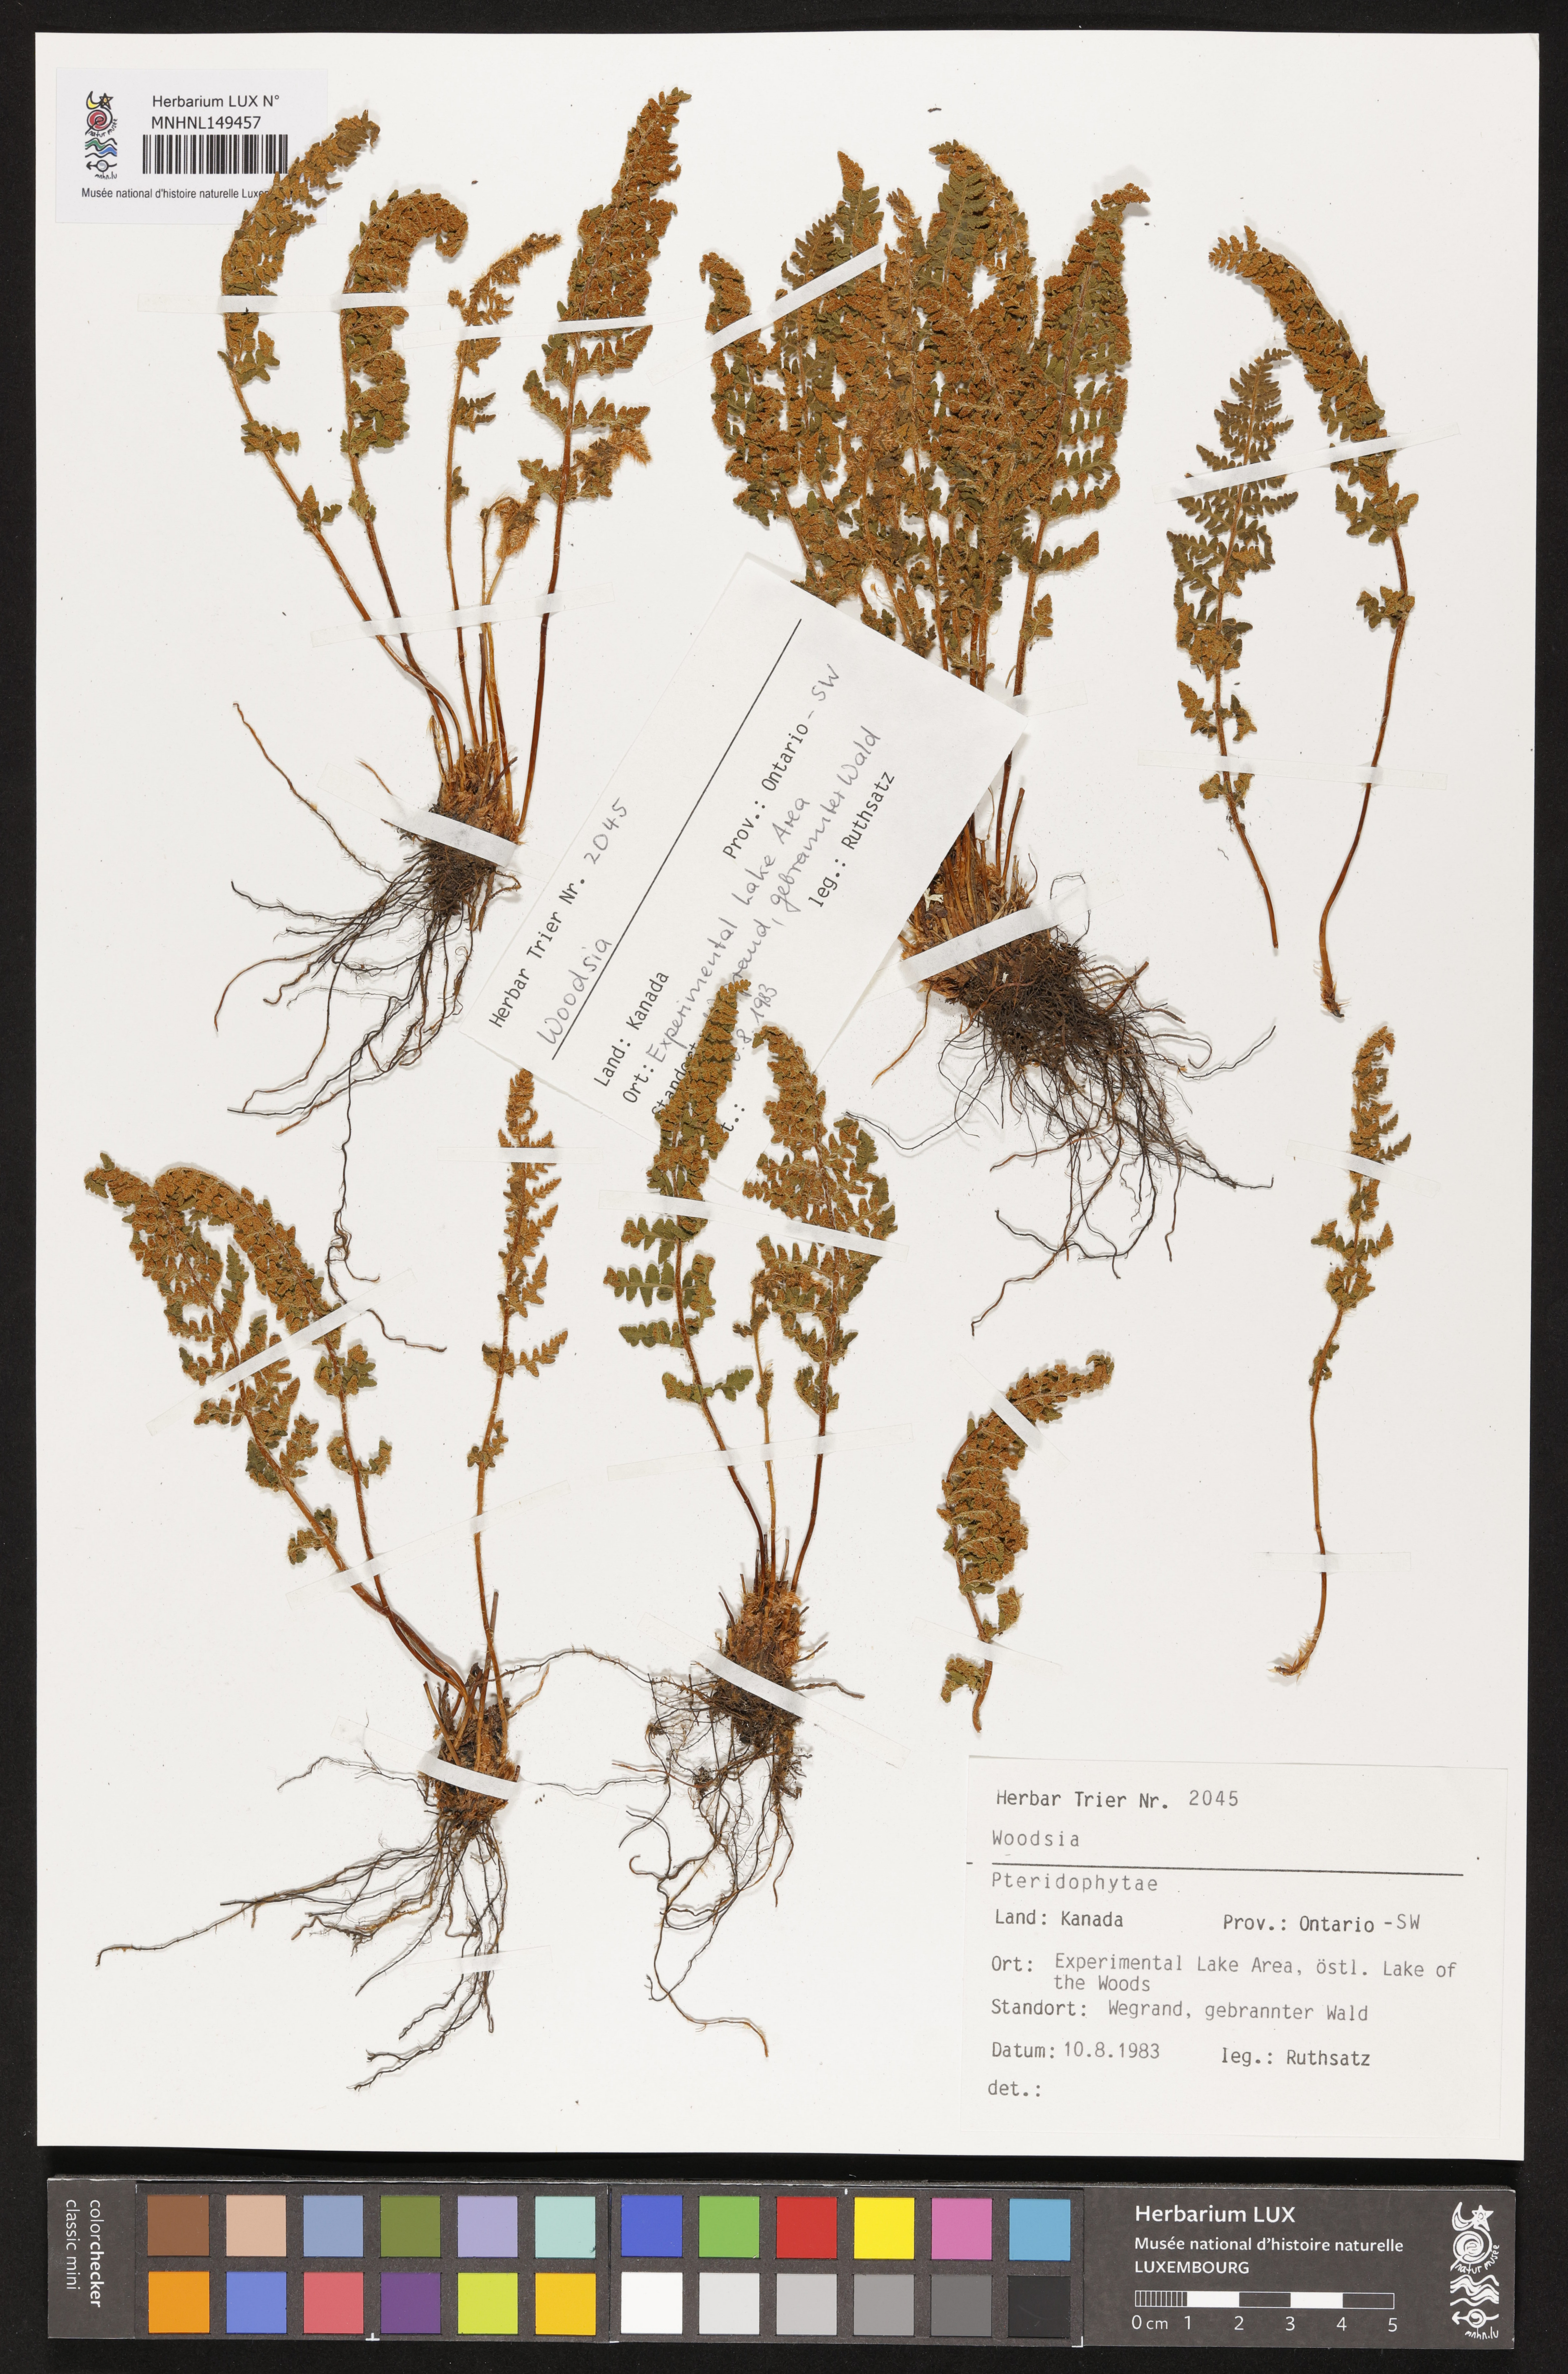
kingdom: Plantae
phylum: Tracheophyta
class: Polypodiopsida
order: Polypodiales
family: Woodsiaceae
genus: Woodsia
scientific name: Woodsia
